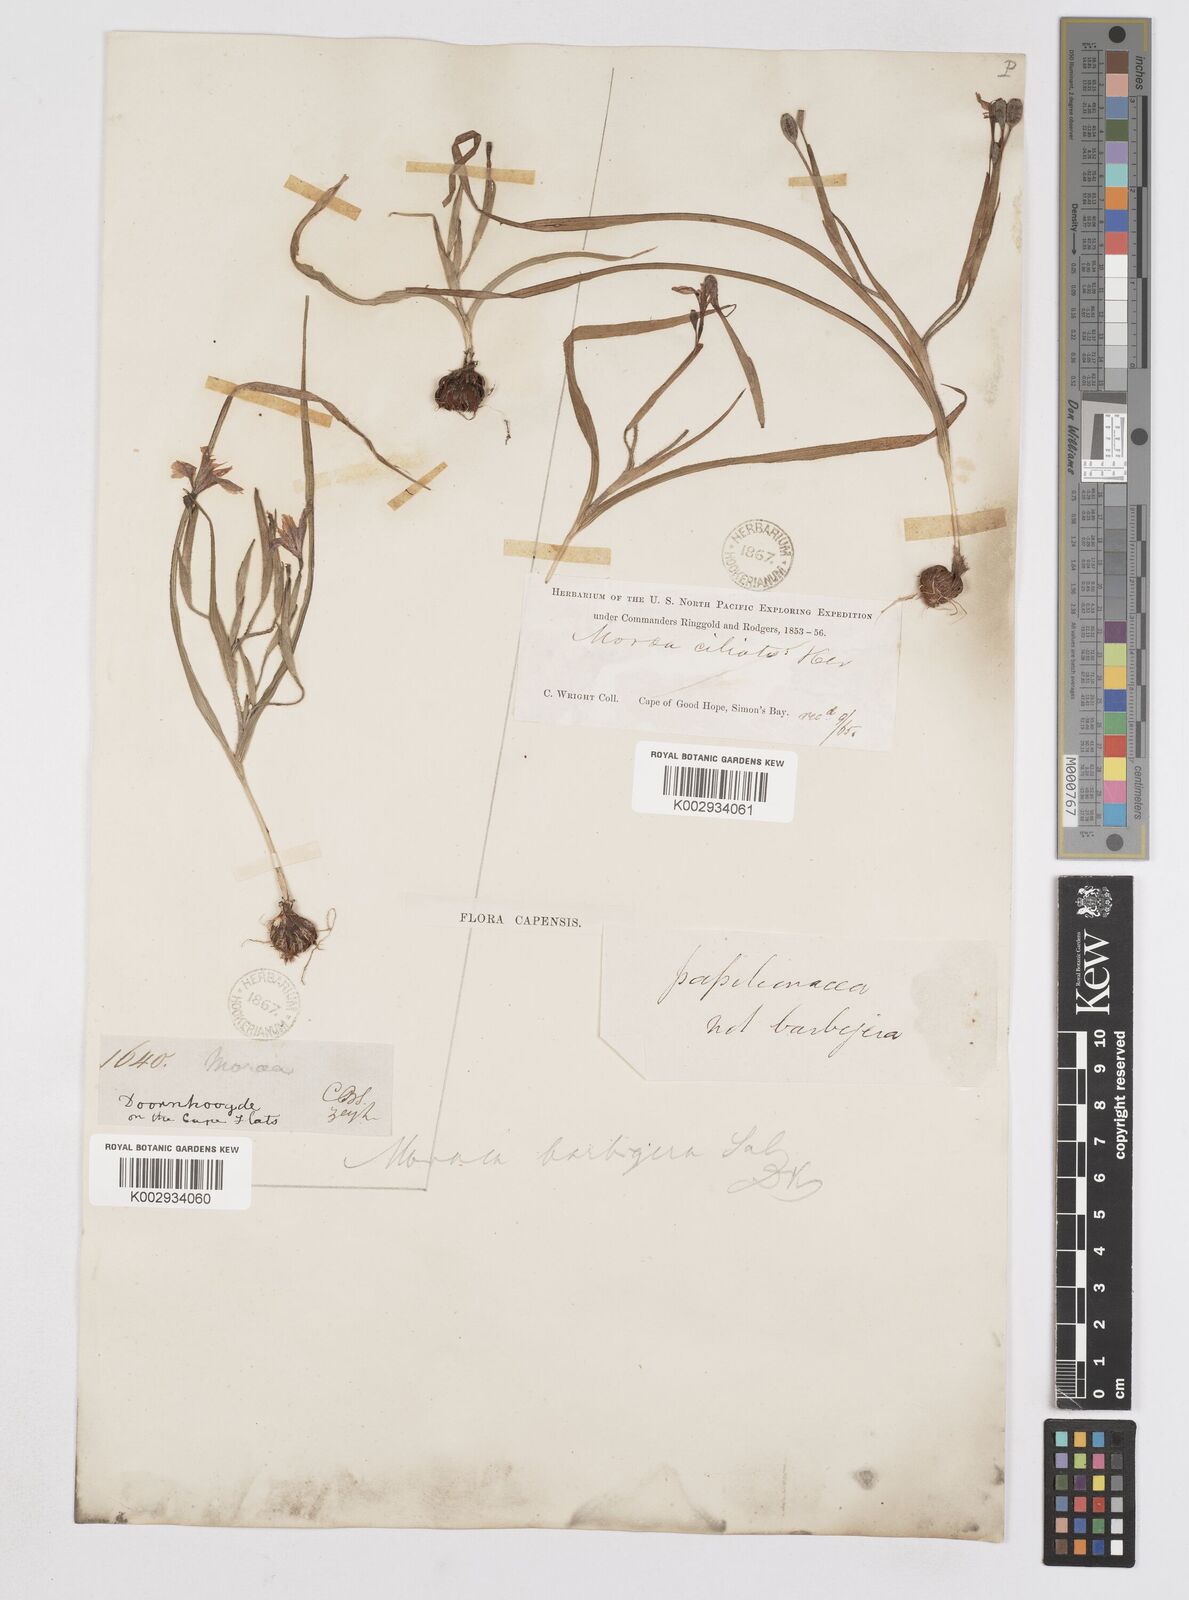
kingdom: Plantae
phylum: Tracheophyta
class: Liliopsida
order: Asparagales
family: Iridaceae
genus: Moraea
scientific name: Moraea papilionacea
